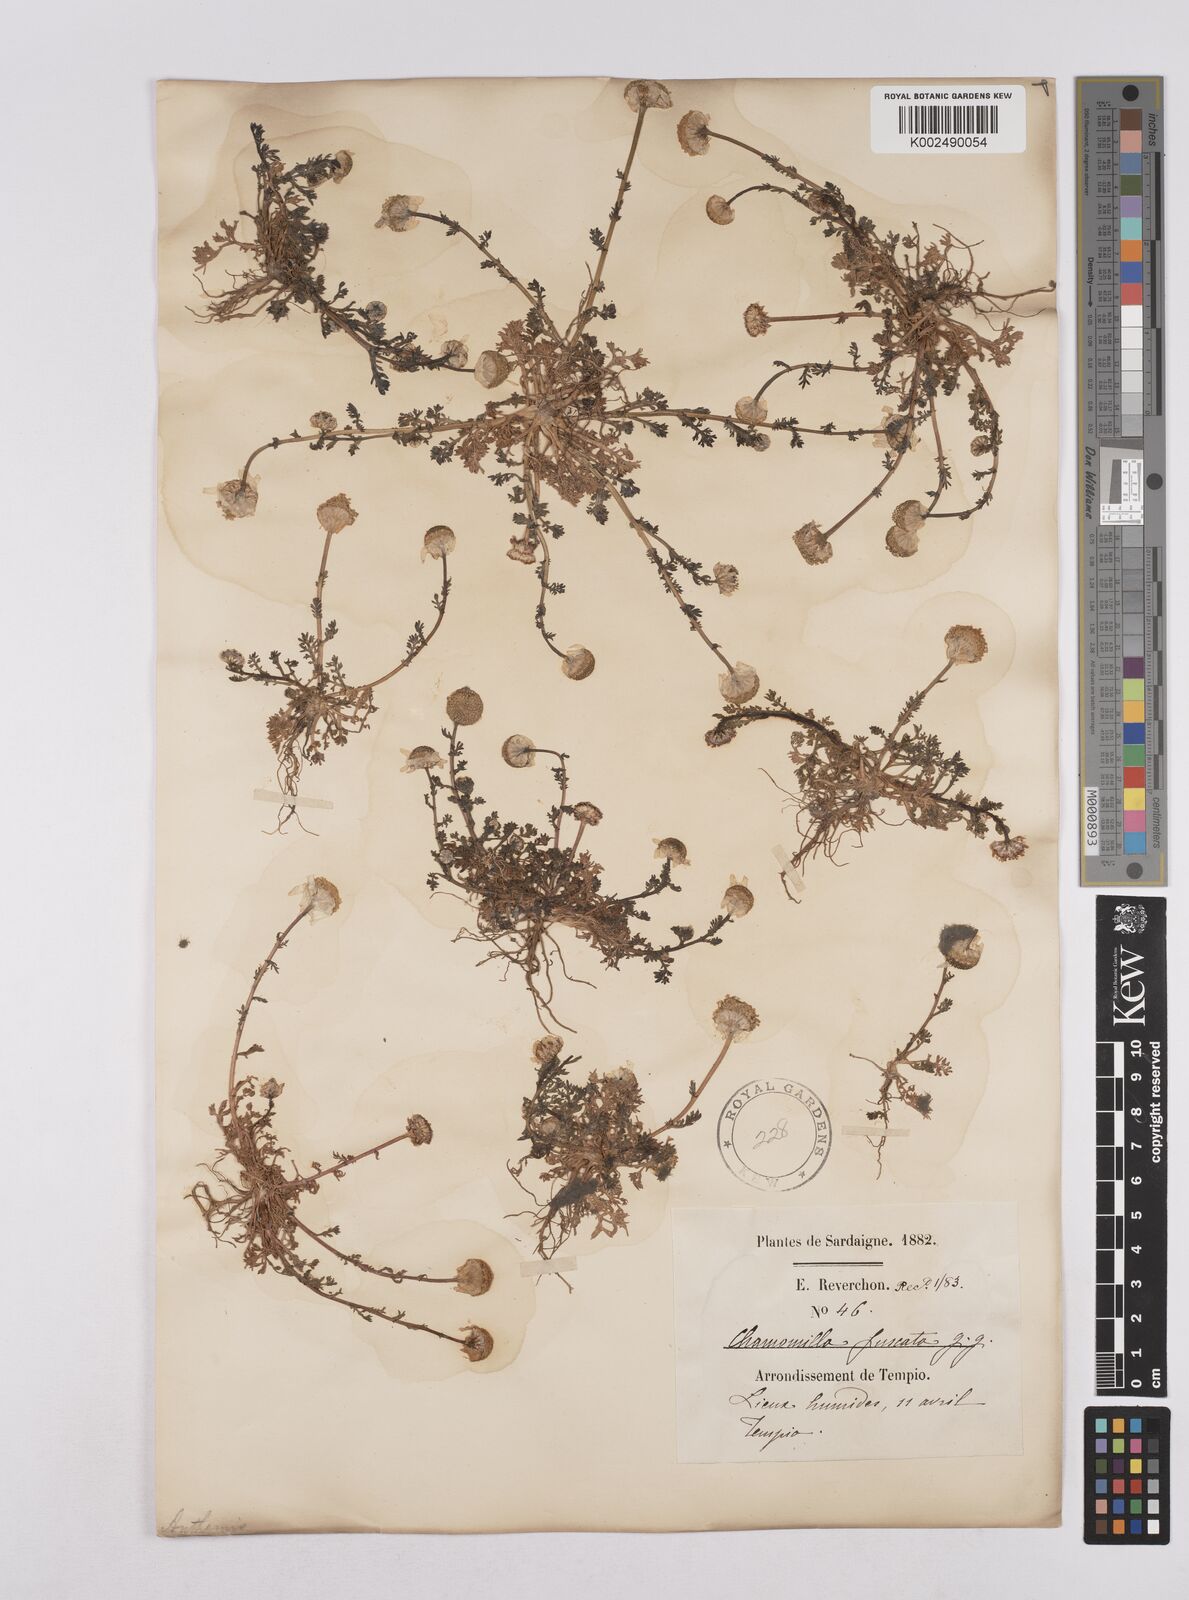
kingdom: Plantae
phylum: Tracheophyta
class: Magnoliopsida
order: Asterales
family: Asteraceae
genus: Chamaemelum
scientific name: Chamaemelum fuscatum
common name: Chamomile
